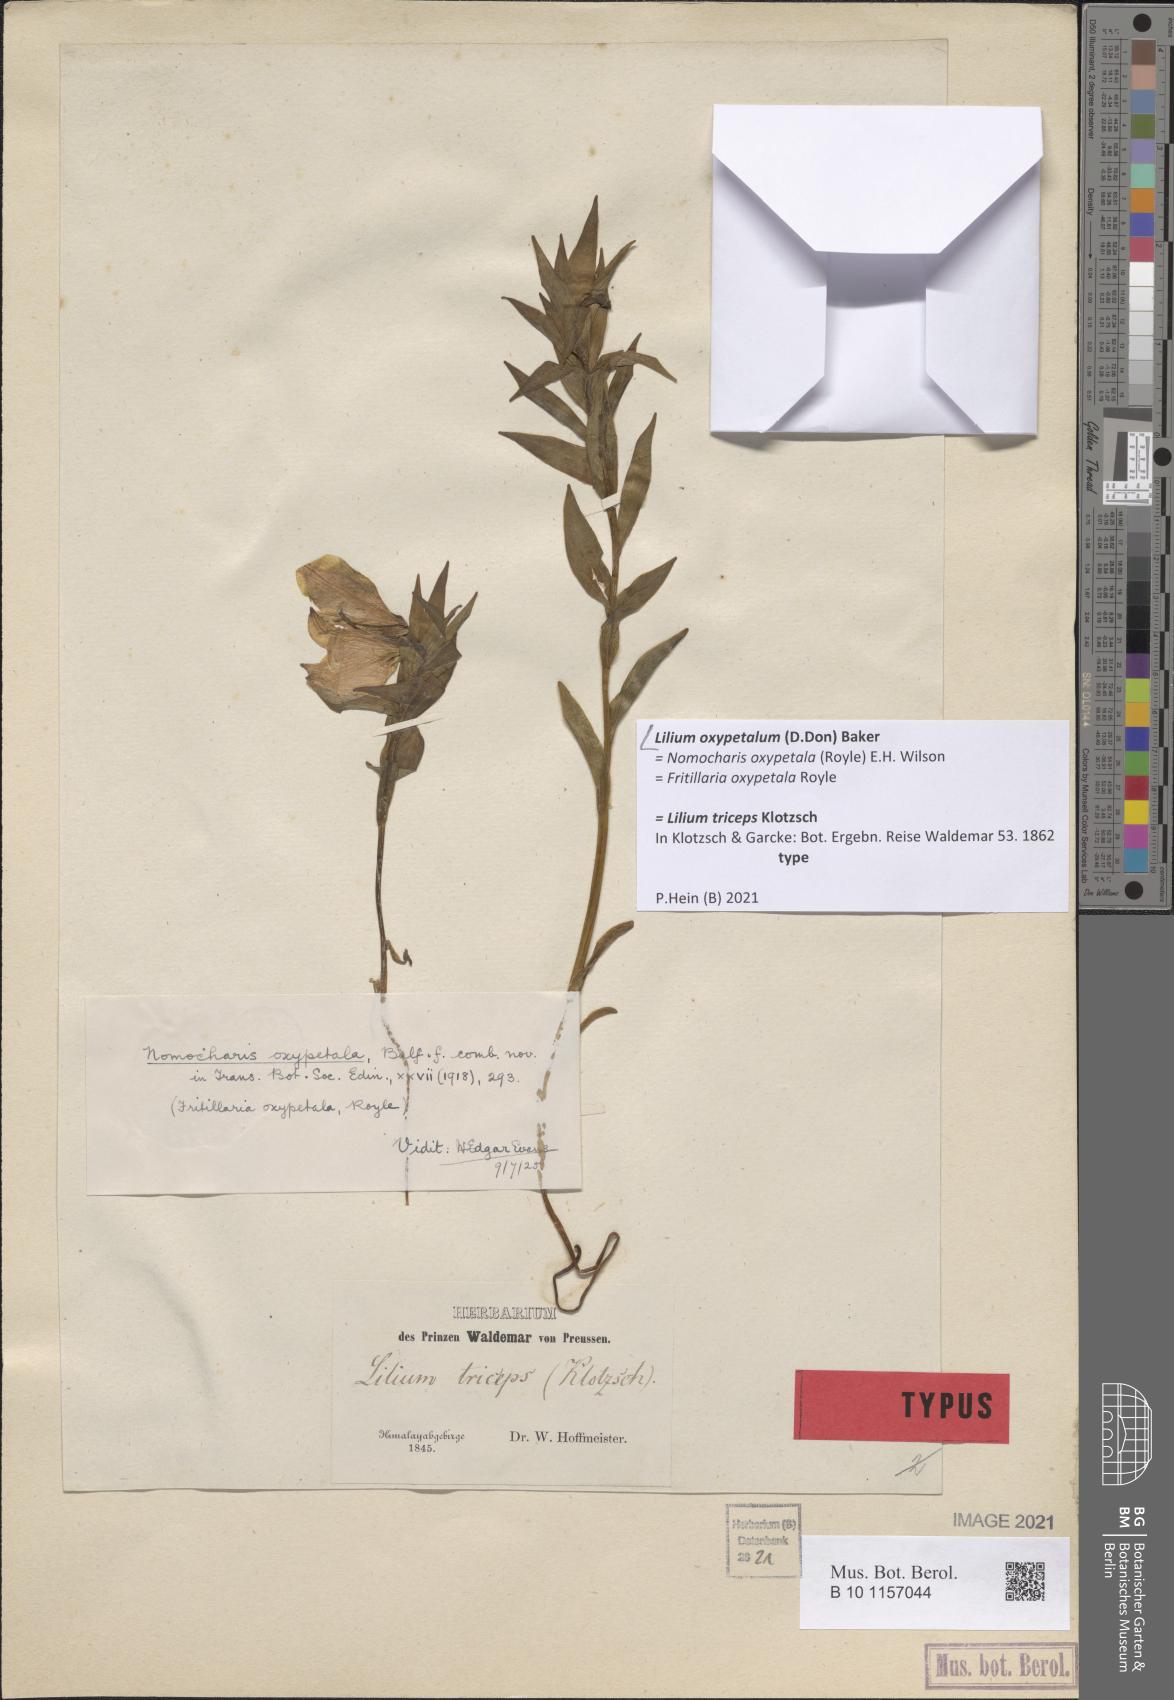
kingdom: Plantae
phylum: Tracheophyta
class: Liliopsida
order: Liliales
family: Liliaceae
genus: Lilium
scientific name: Lilium oxypetalum
